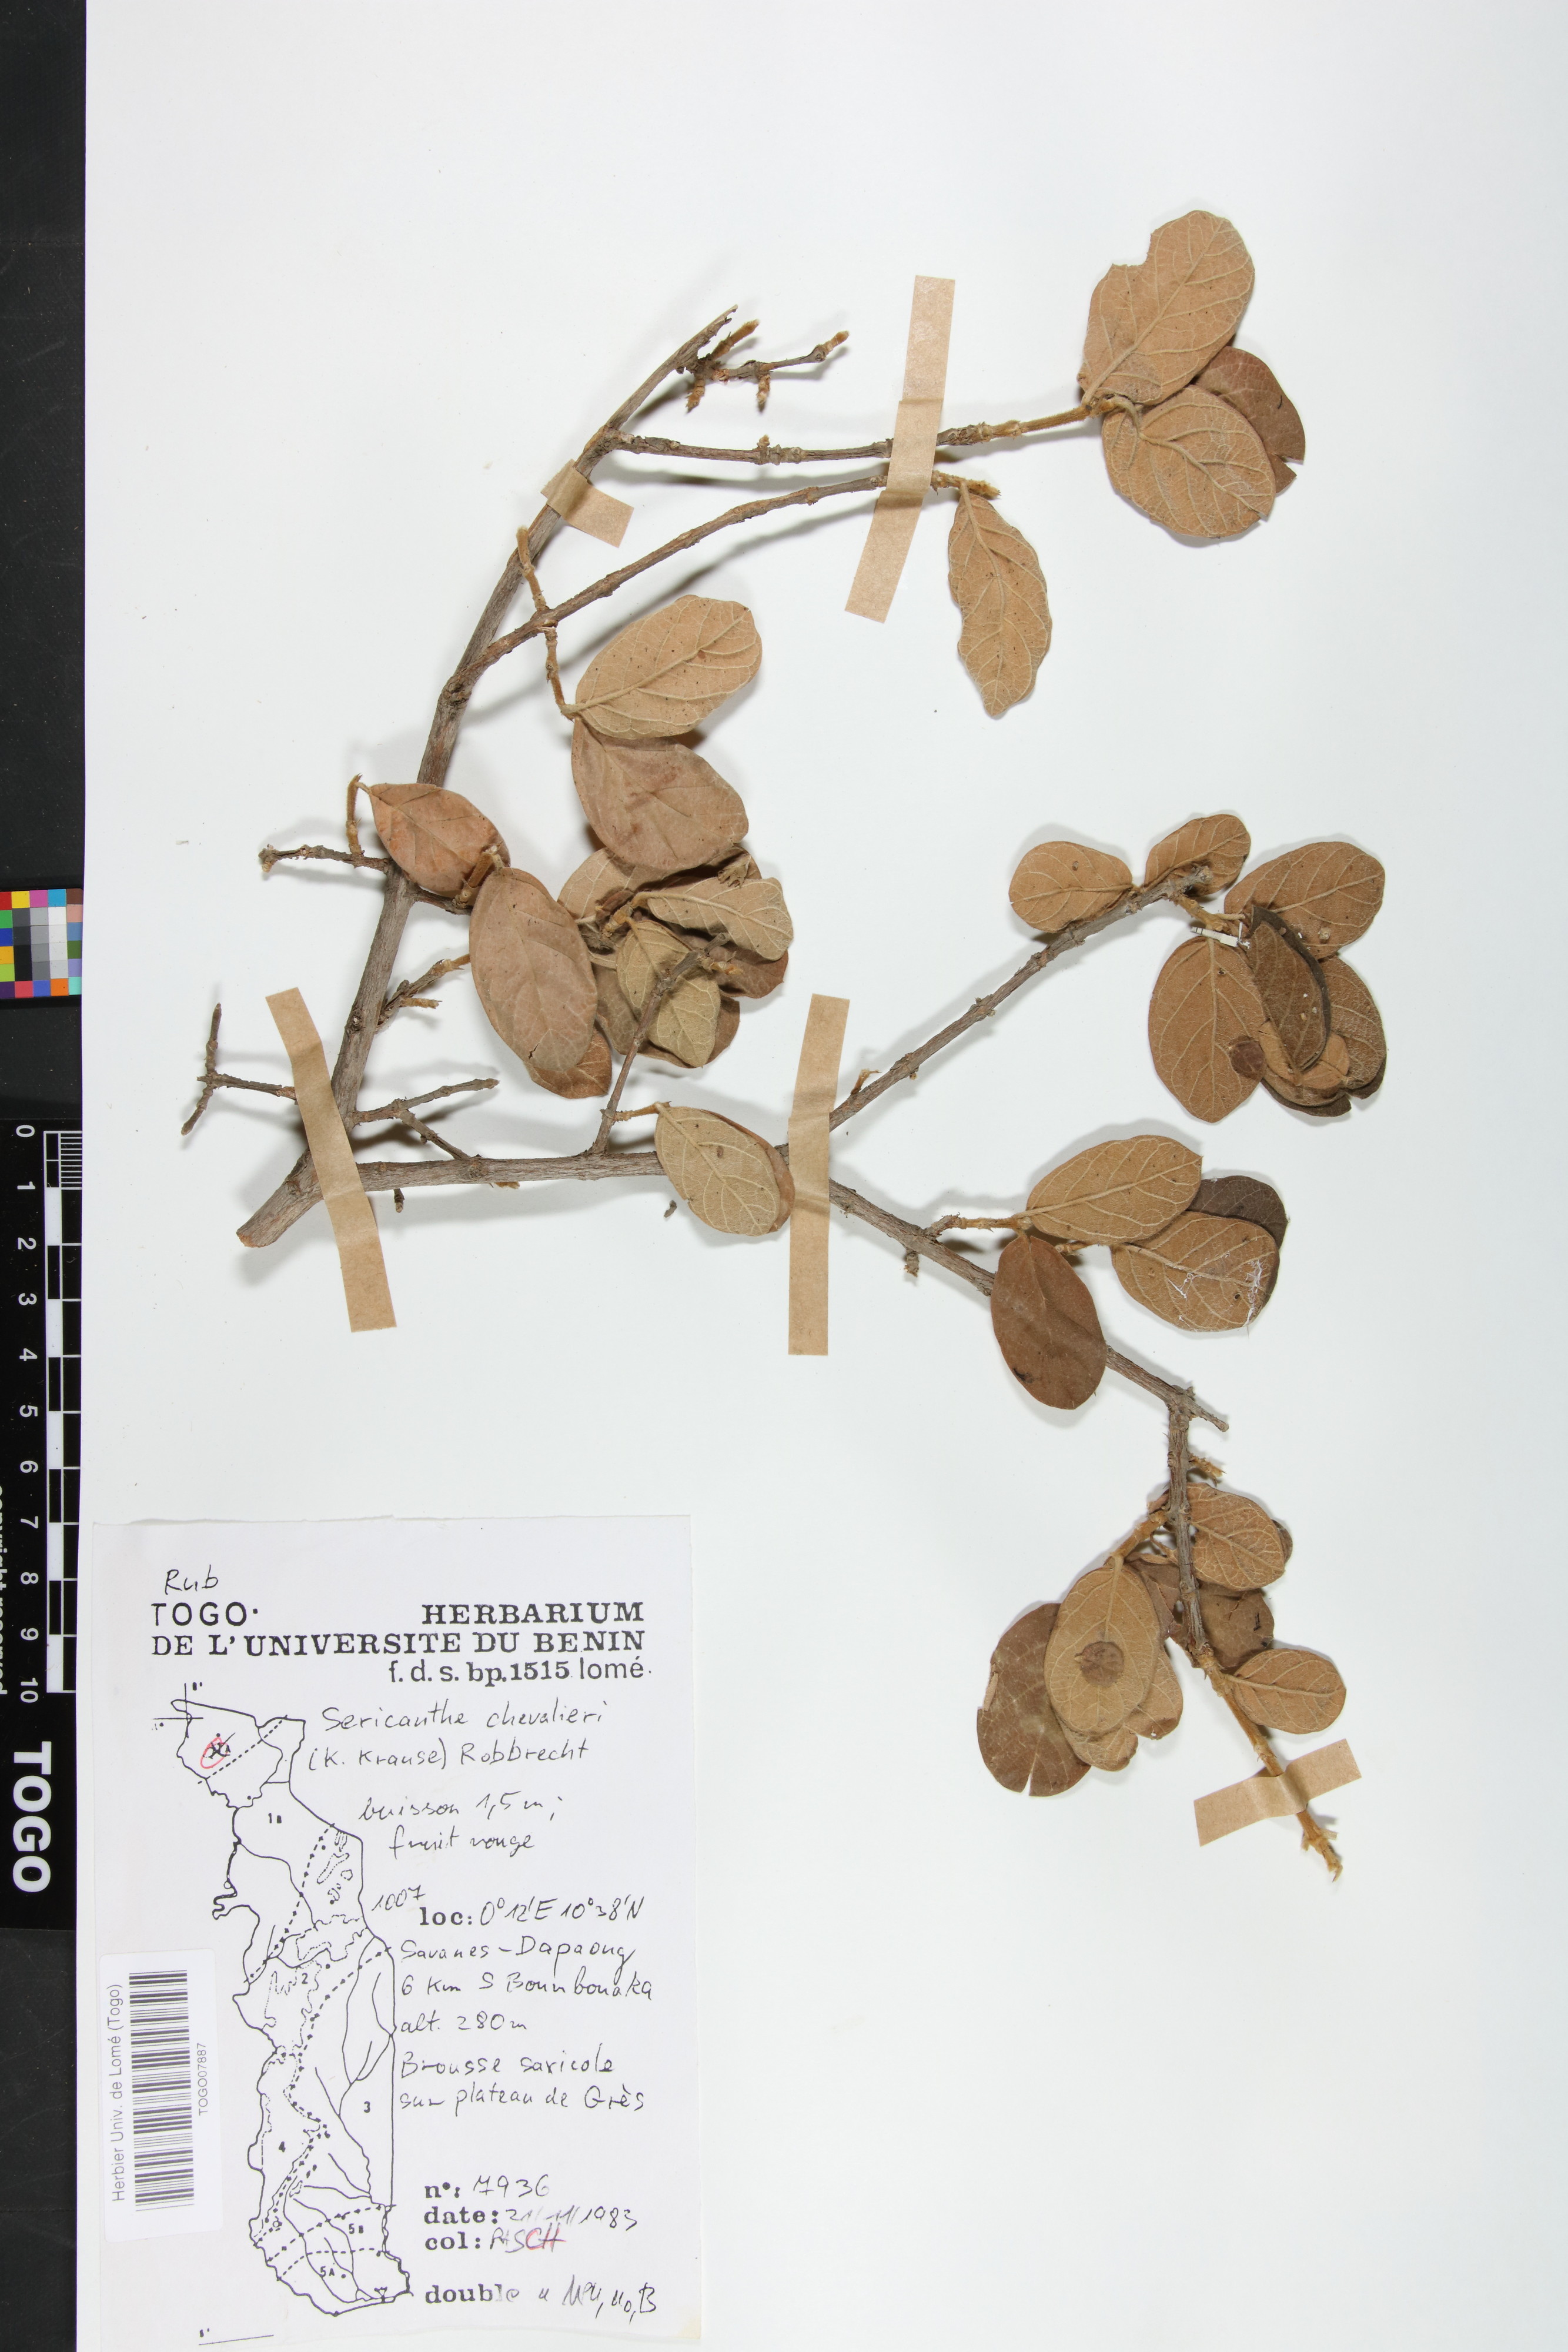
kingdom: Plantae
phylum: Tracheophyta
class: Magnoliopsida
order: Gentianales
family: Rubiaceae
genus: Sericanthe
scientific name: Sericanthe chevalieri
